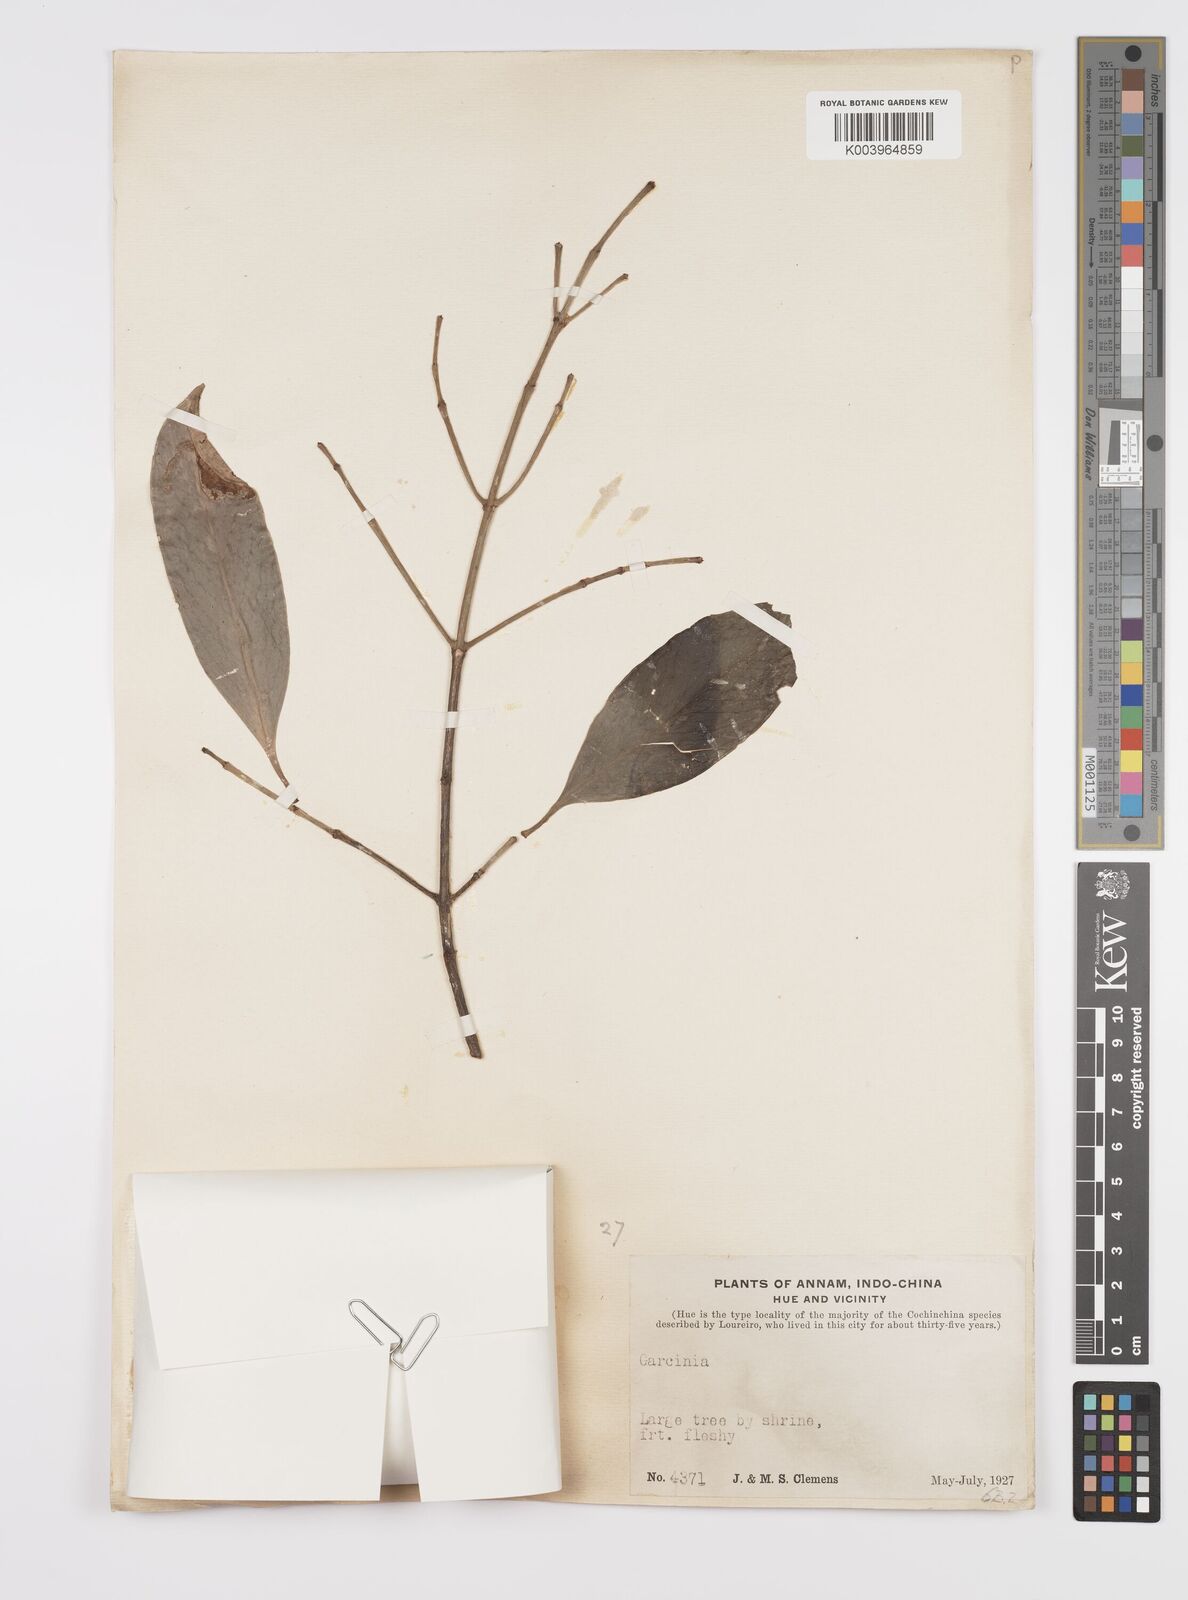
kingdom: Plantae
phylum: Tracheophyta
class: Magnoliopsida
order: Malpighiales
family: Clusiaceae
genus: Garcinia
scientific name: Garcinia
